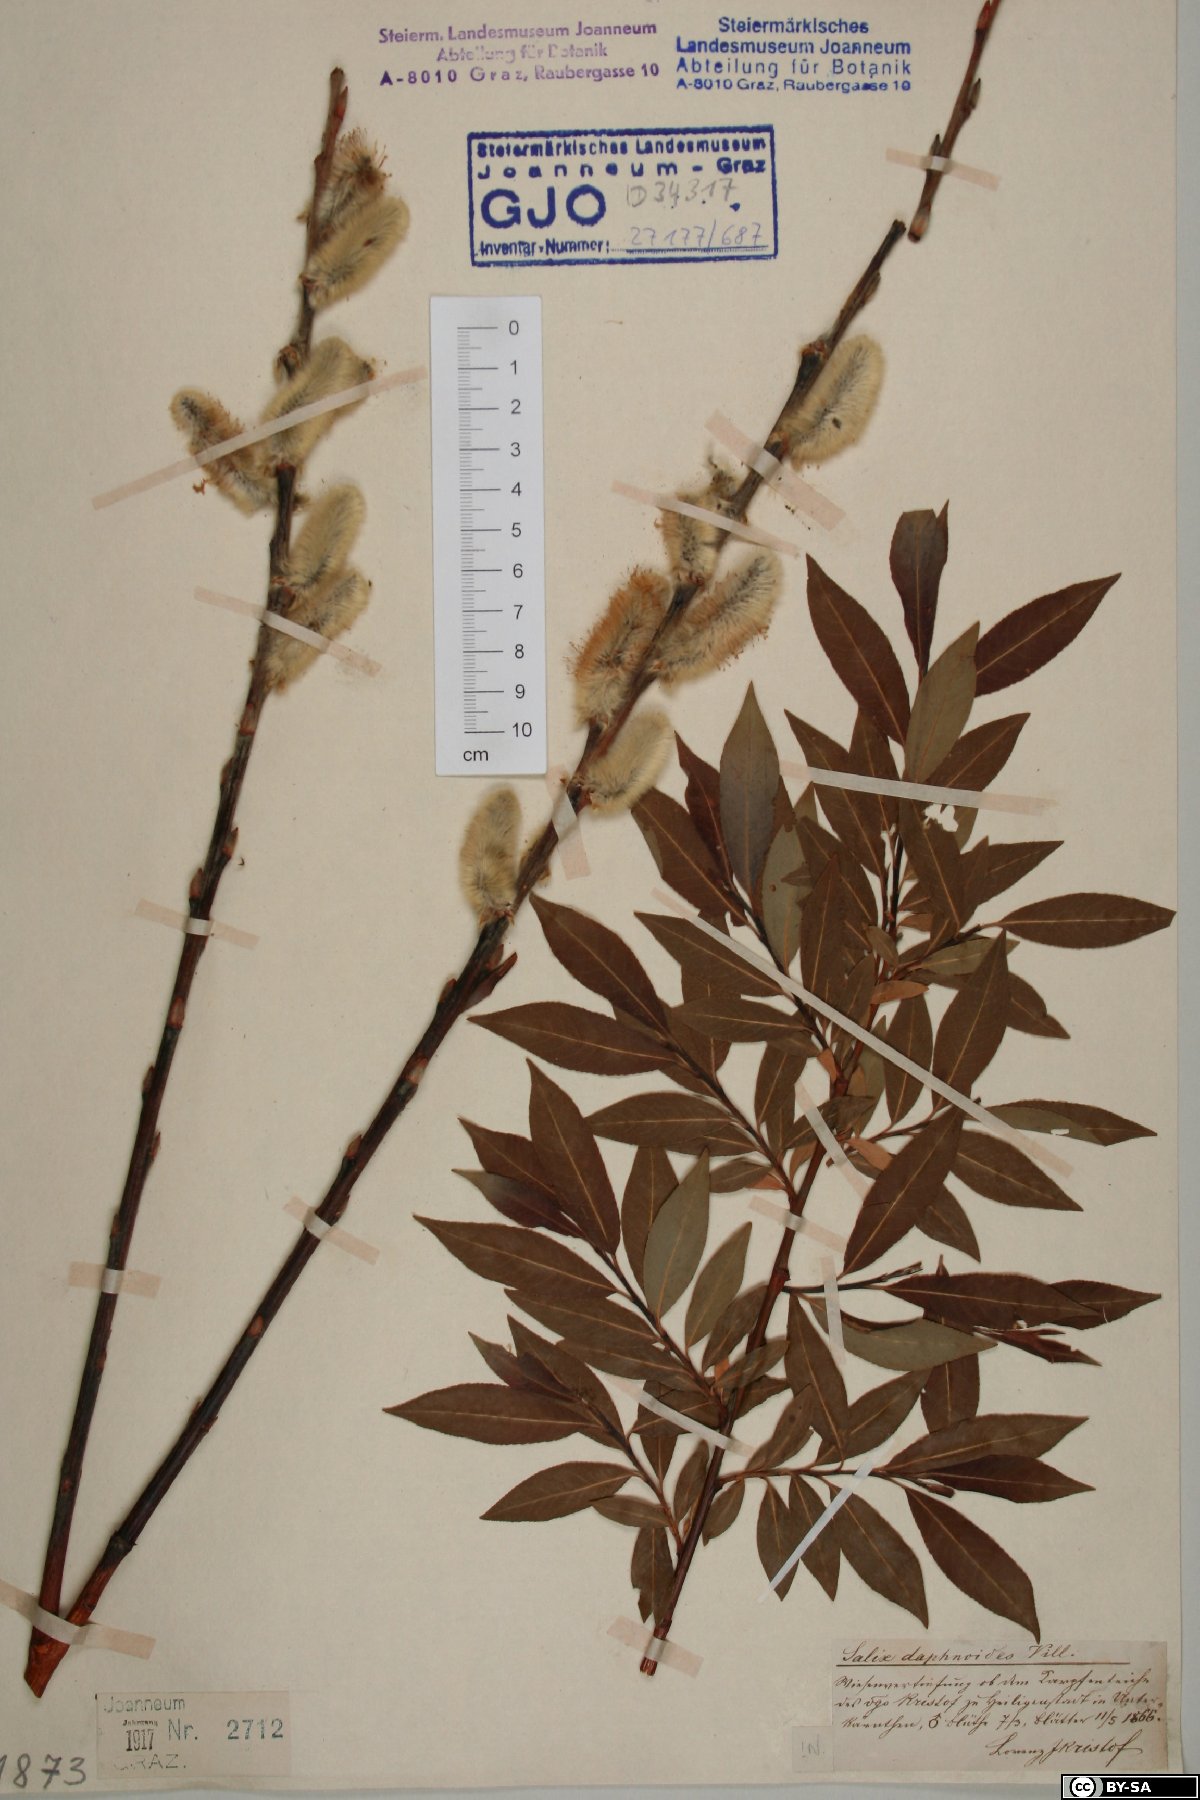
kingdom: Plantae
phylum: Tracheophyta
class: Magnoliopsida
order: Malpighiales
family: Salicaceae
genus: Salix
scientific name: Salix daphnoides
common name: European violet-willow
